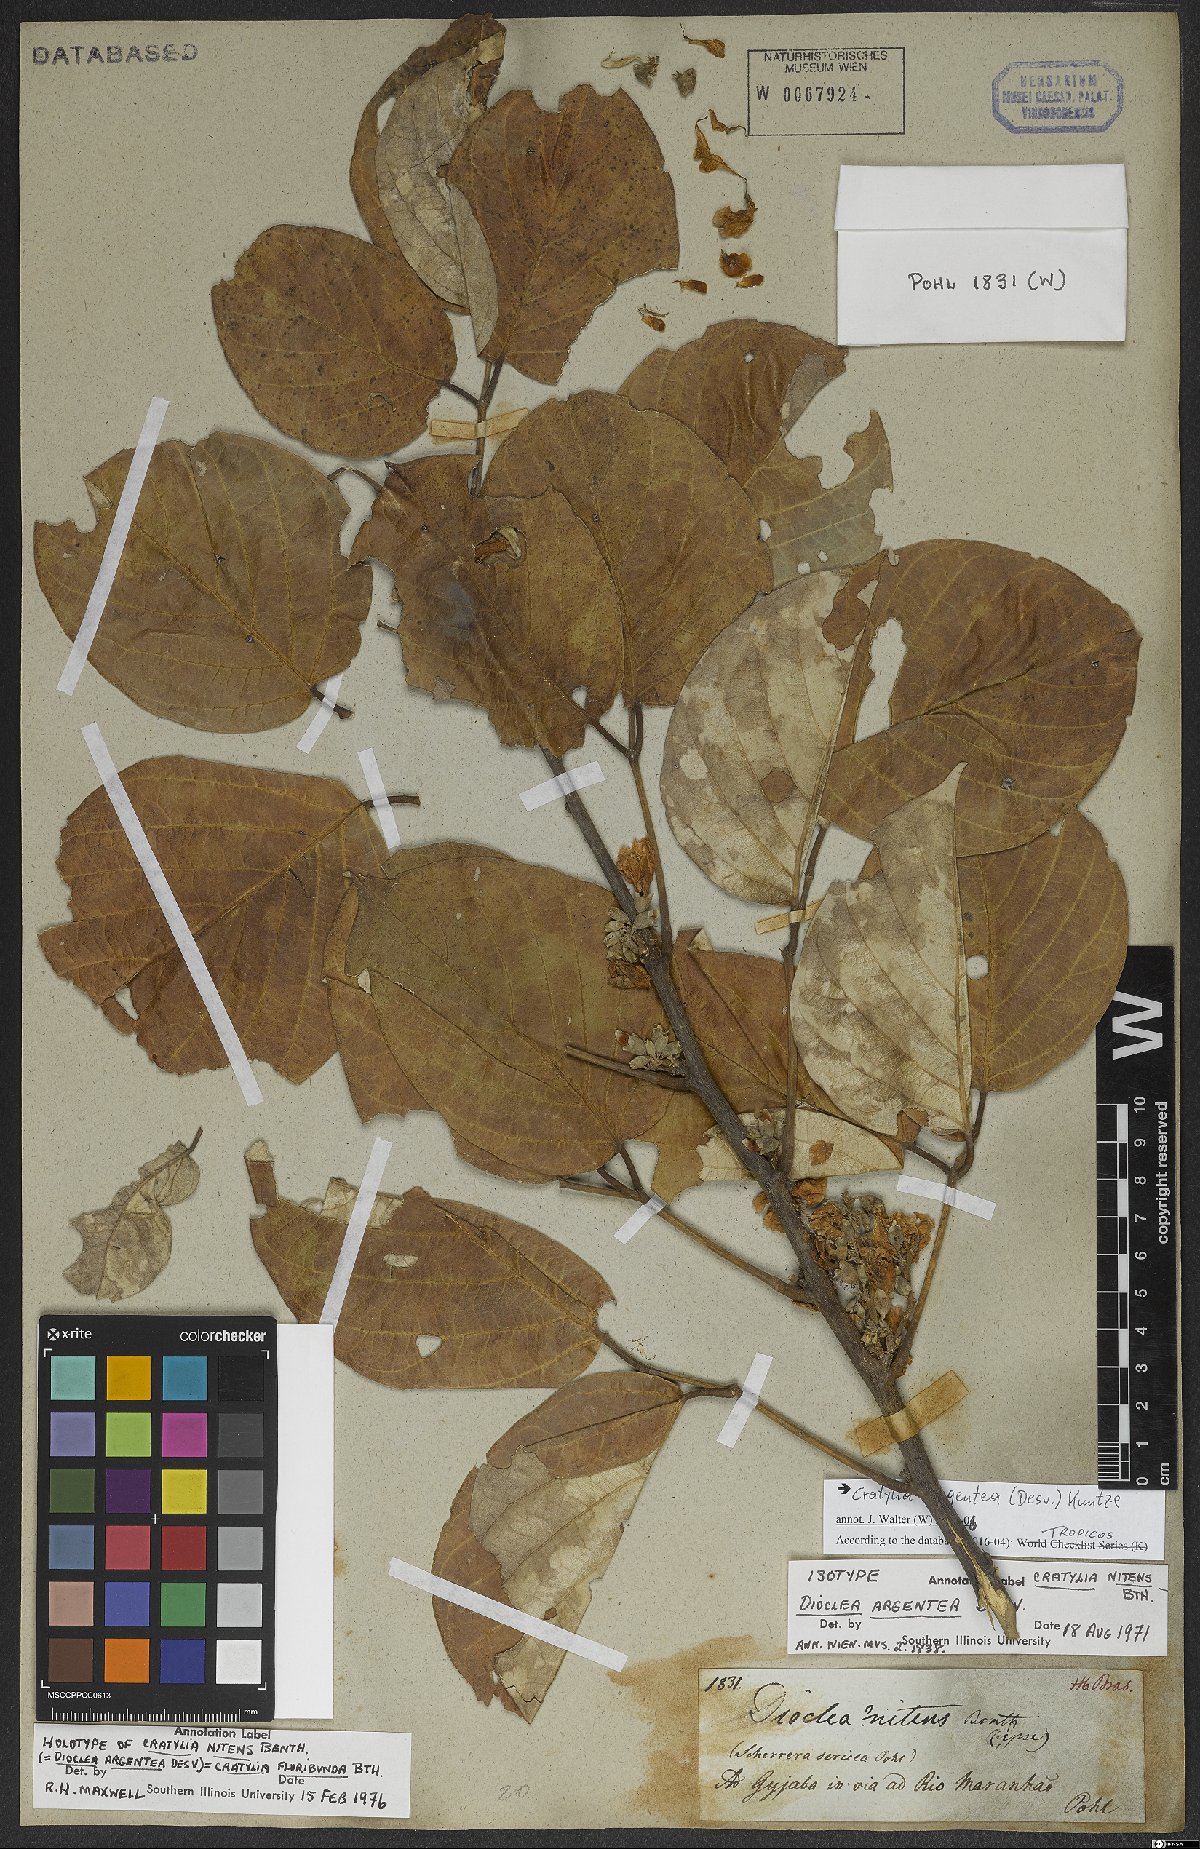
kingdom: Plantae
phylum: Tracheophyta
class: Magnoliopsida
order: Fabales
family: Fabaceae
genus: Cratylia
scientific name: Cratylia argentea
